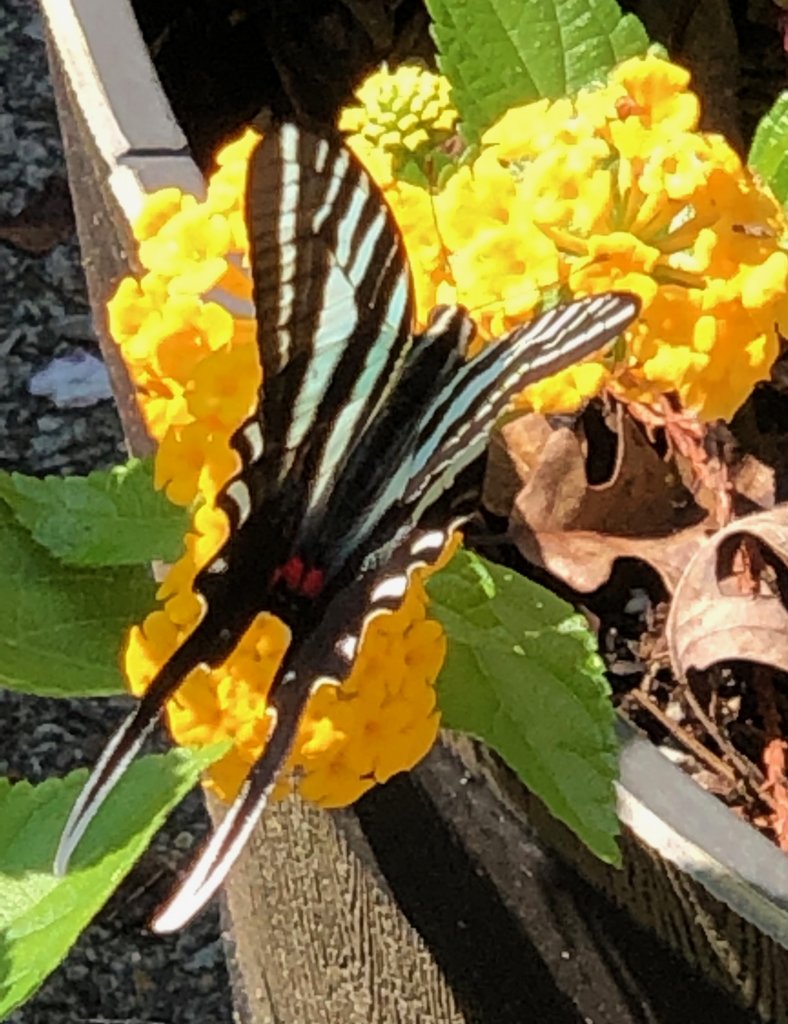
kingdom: Animalia
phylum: Arthropoda
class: Insecta
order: Lepidoptera
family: Papilionidae
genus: Protographium
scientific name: Protographium marcellus
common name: Zebra Swallowtail
